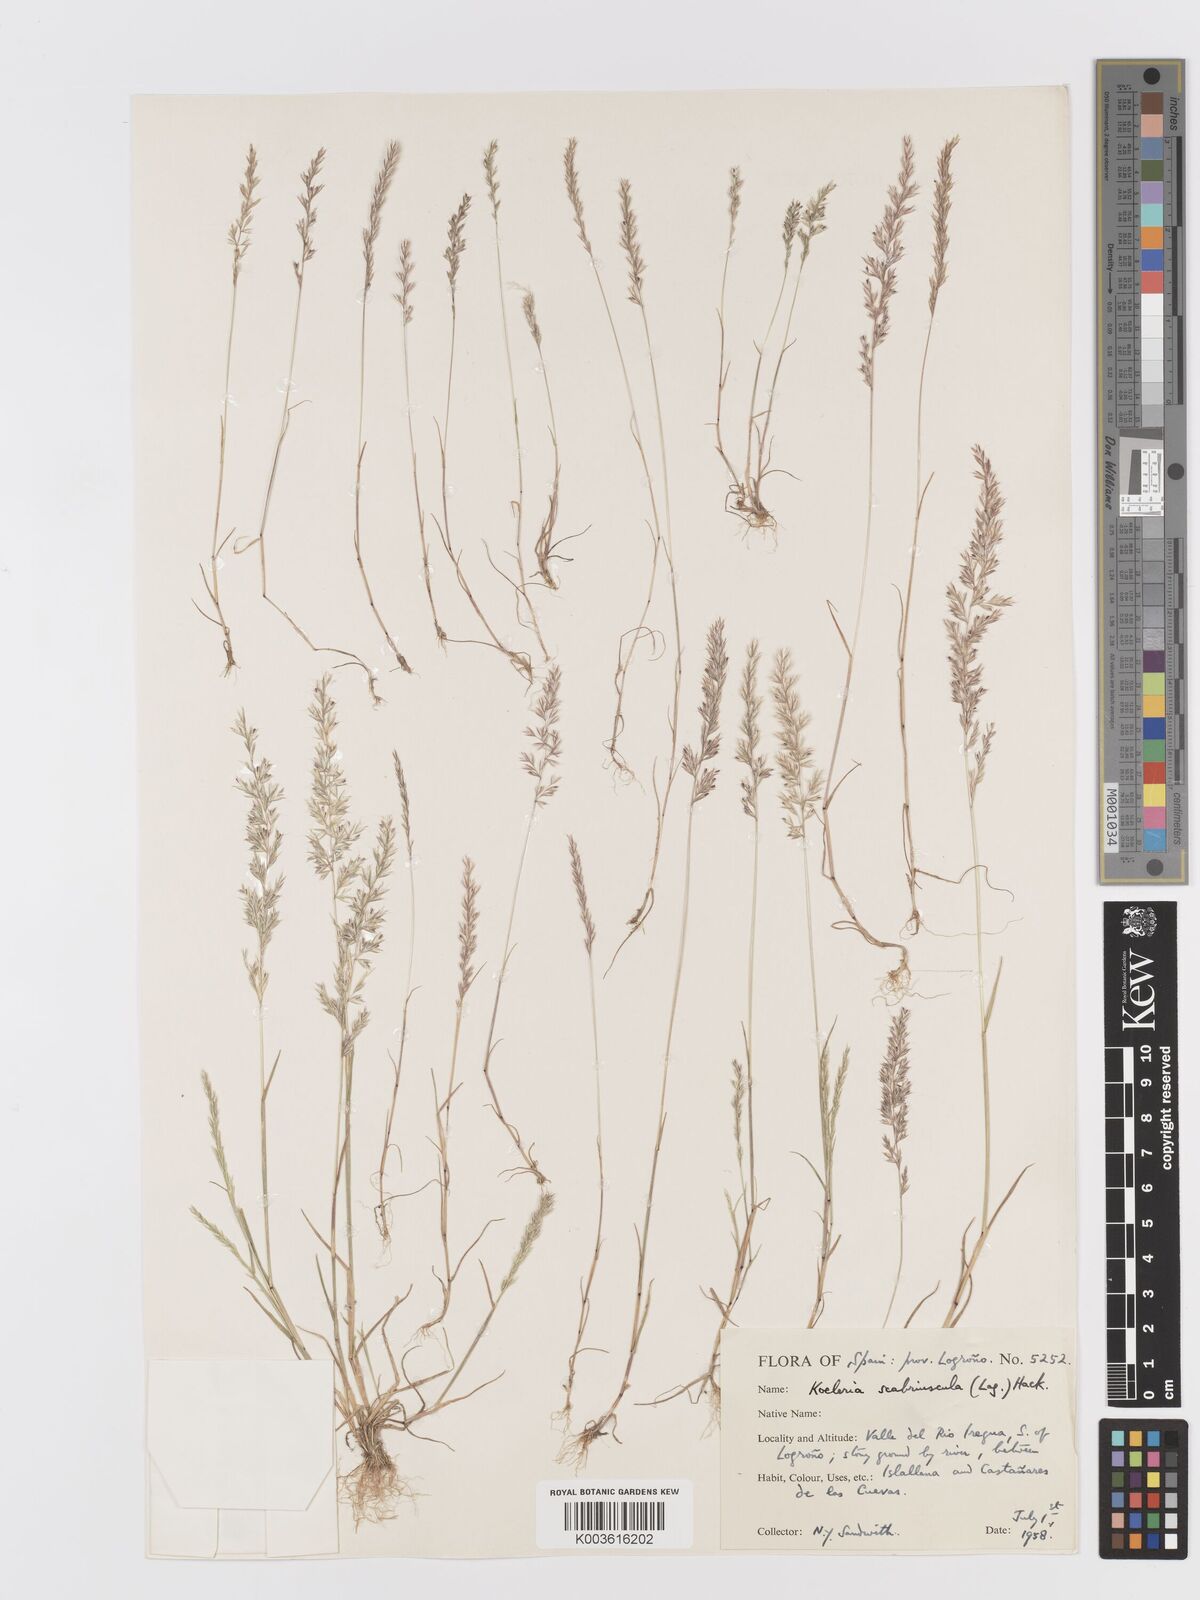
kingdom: Plantae
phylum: Tracheophyta
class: Liliopsida
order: Poales
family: Poaceae
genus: Trisetaria
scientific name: Trisetaria scabriuscula
